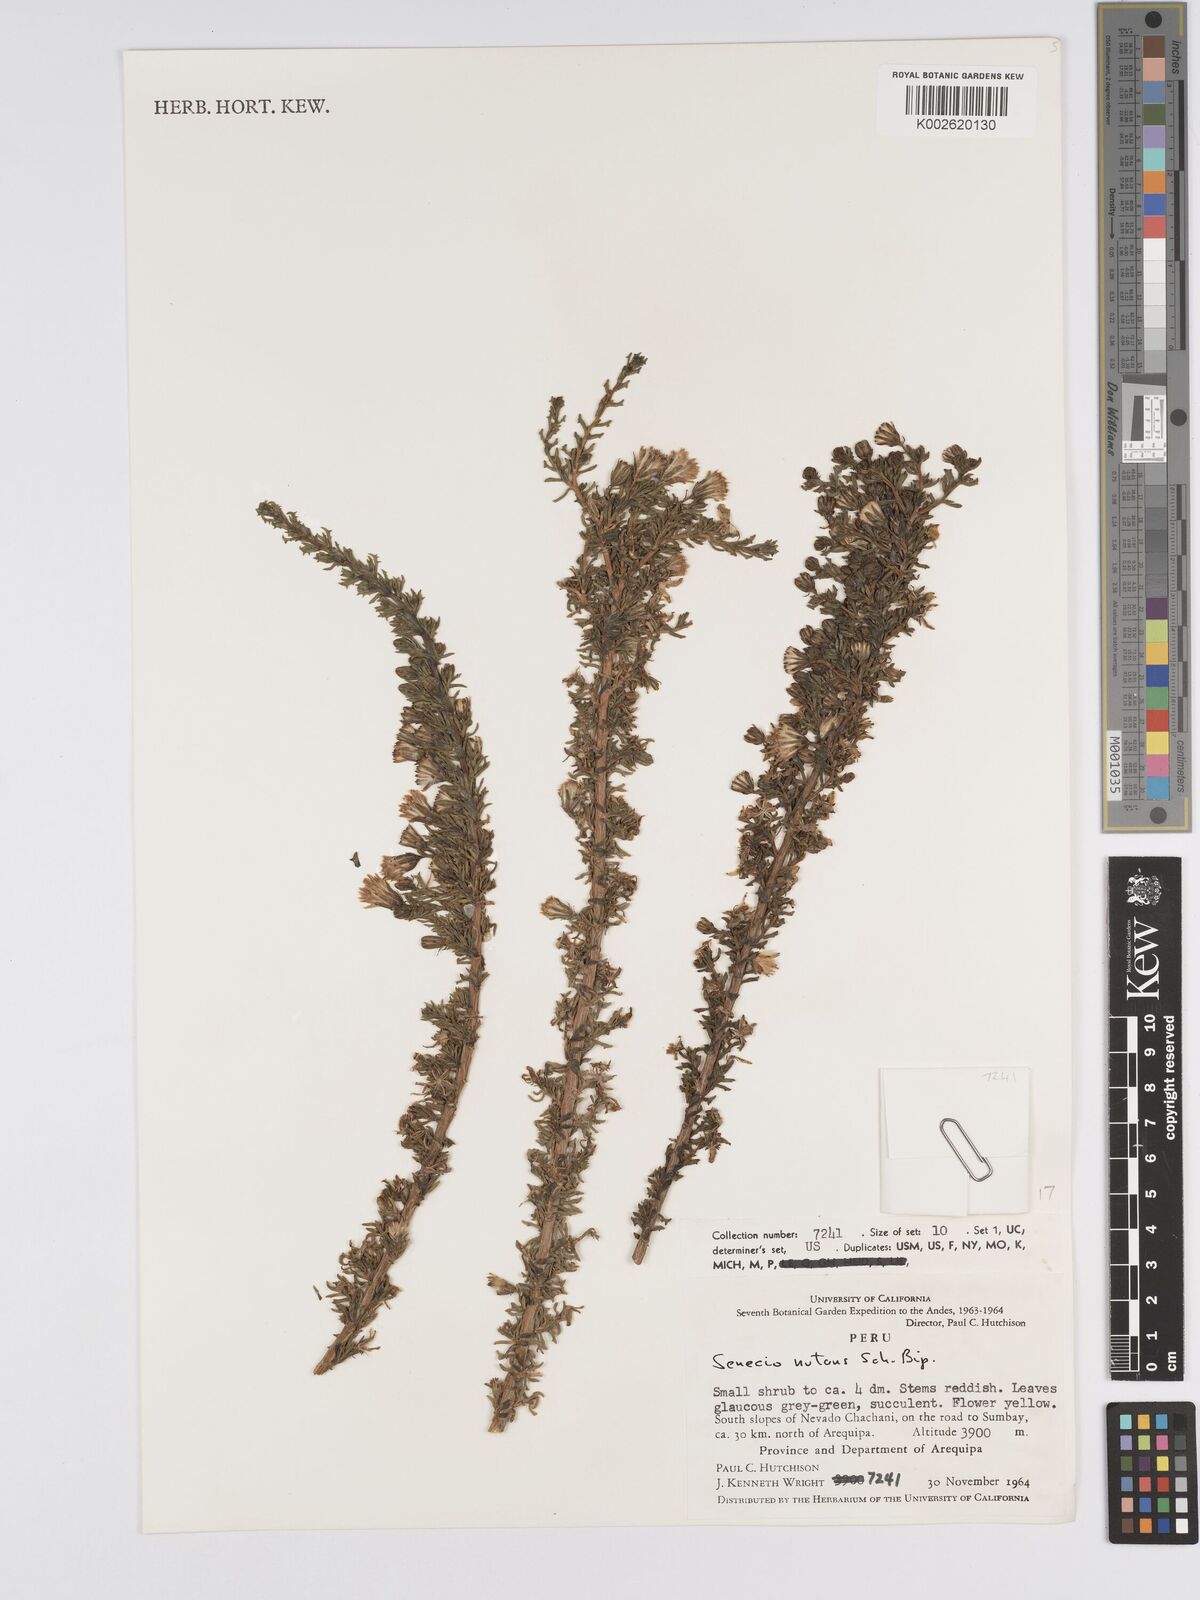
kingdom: Plantae
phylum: Tracheophyta
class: Magnoliopsida
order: Asterales
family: Asteraceae
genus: Senecio
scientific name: Senecio nutans
